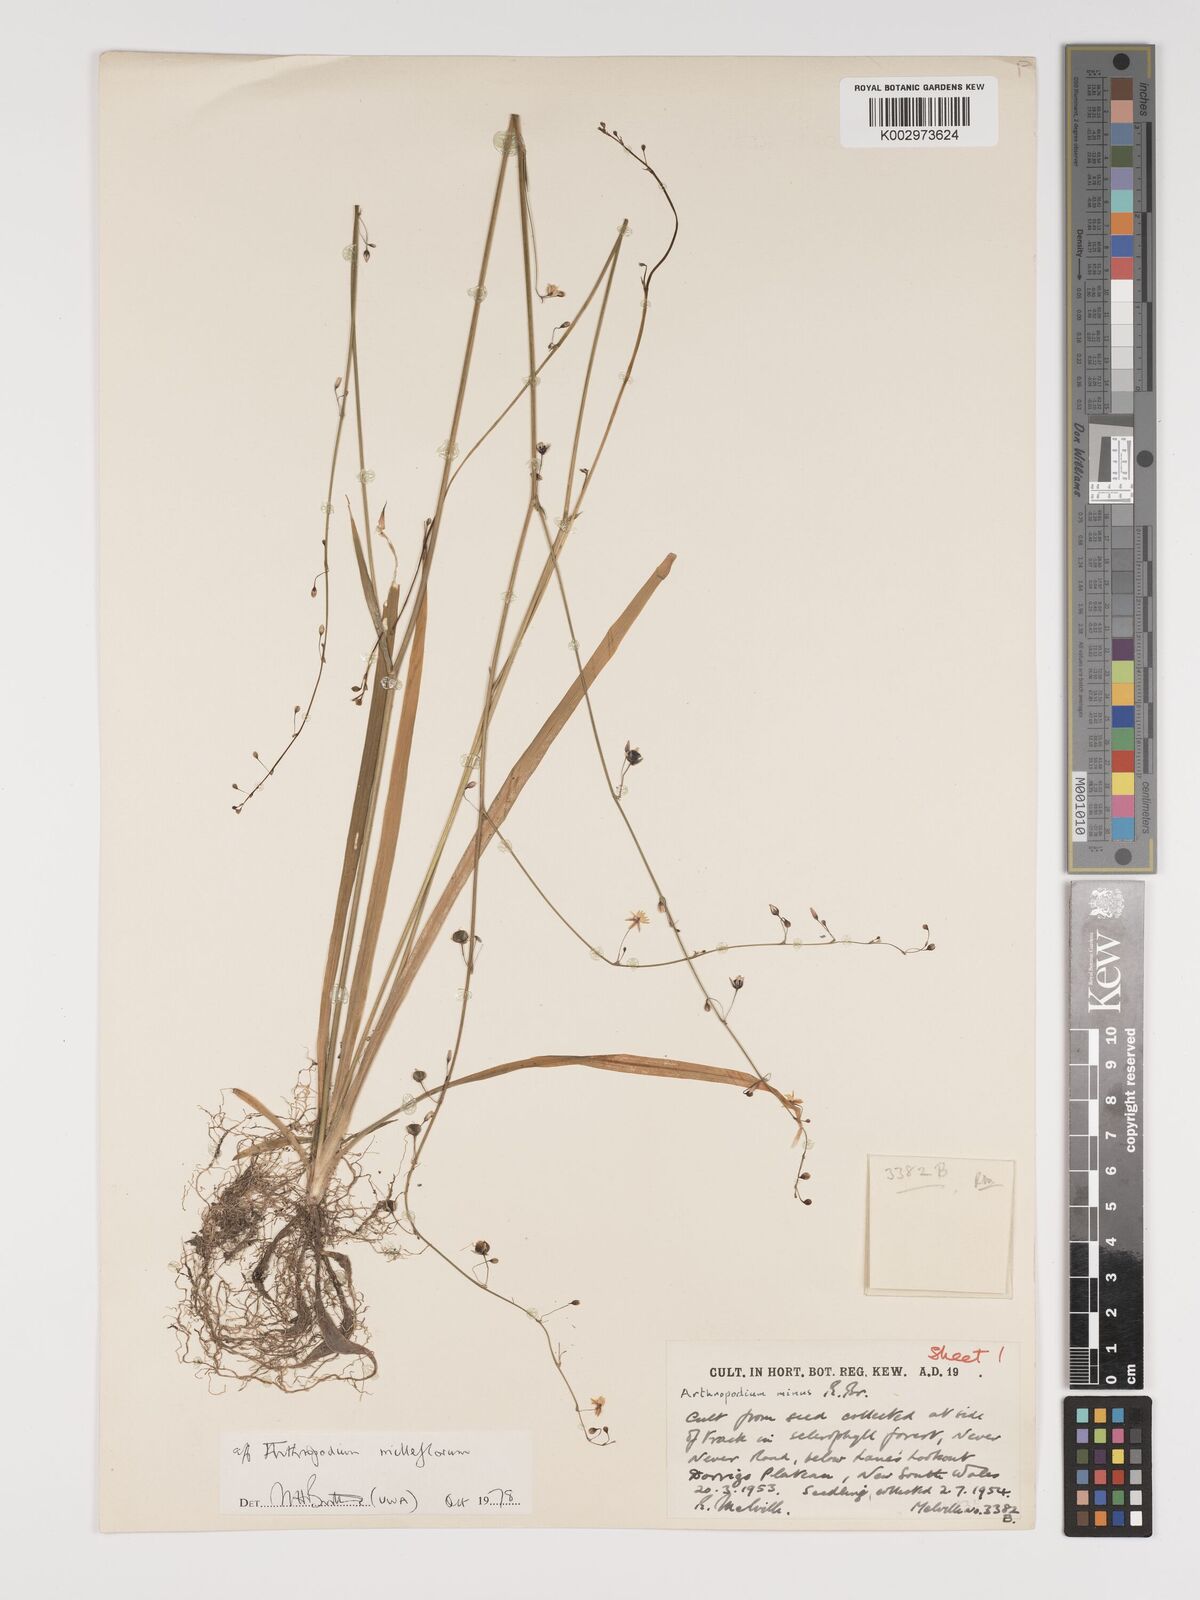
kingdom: Plantae
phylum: Tracheophyta
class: Liliopsida
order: Asparagales
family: Asparagaceae
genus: Arthropodium
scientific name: Arthropodium milleflorum
